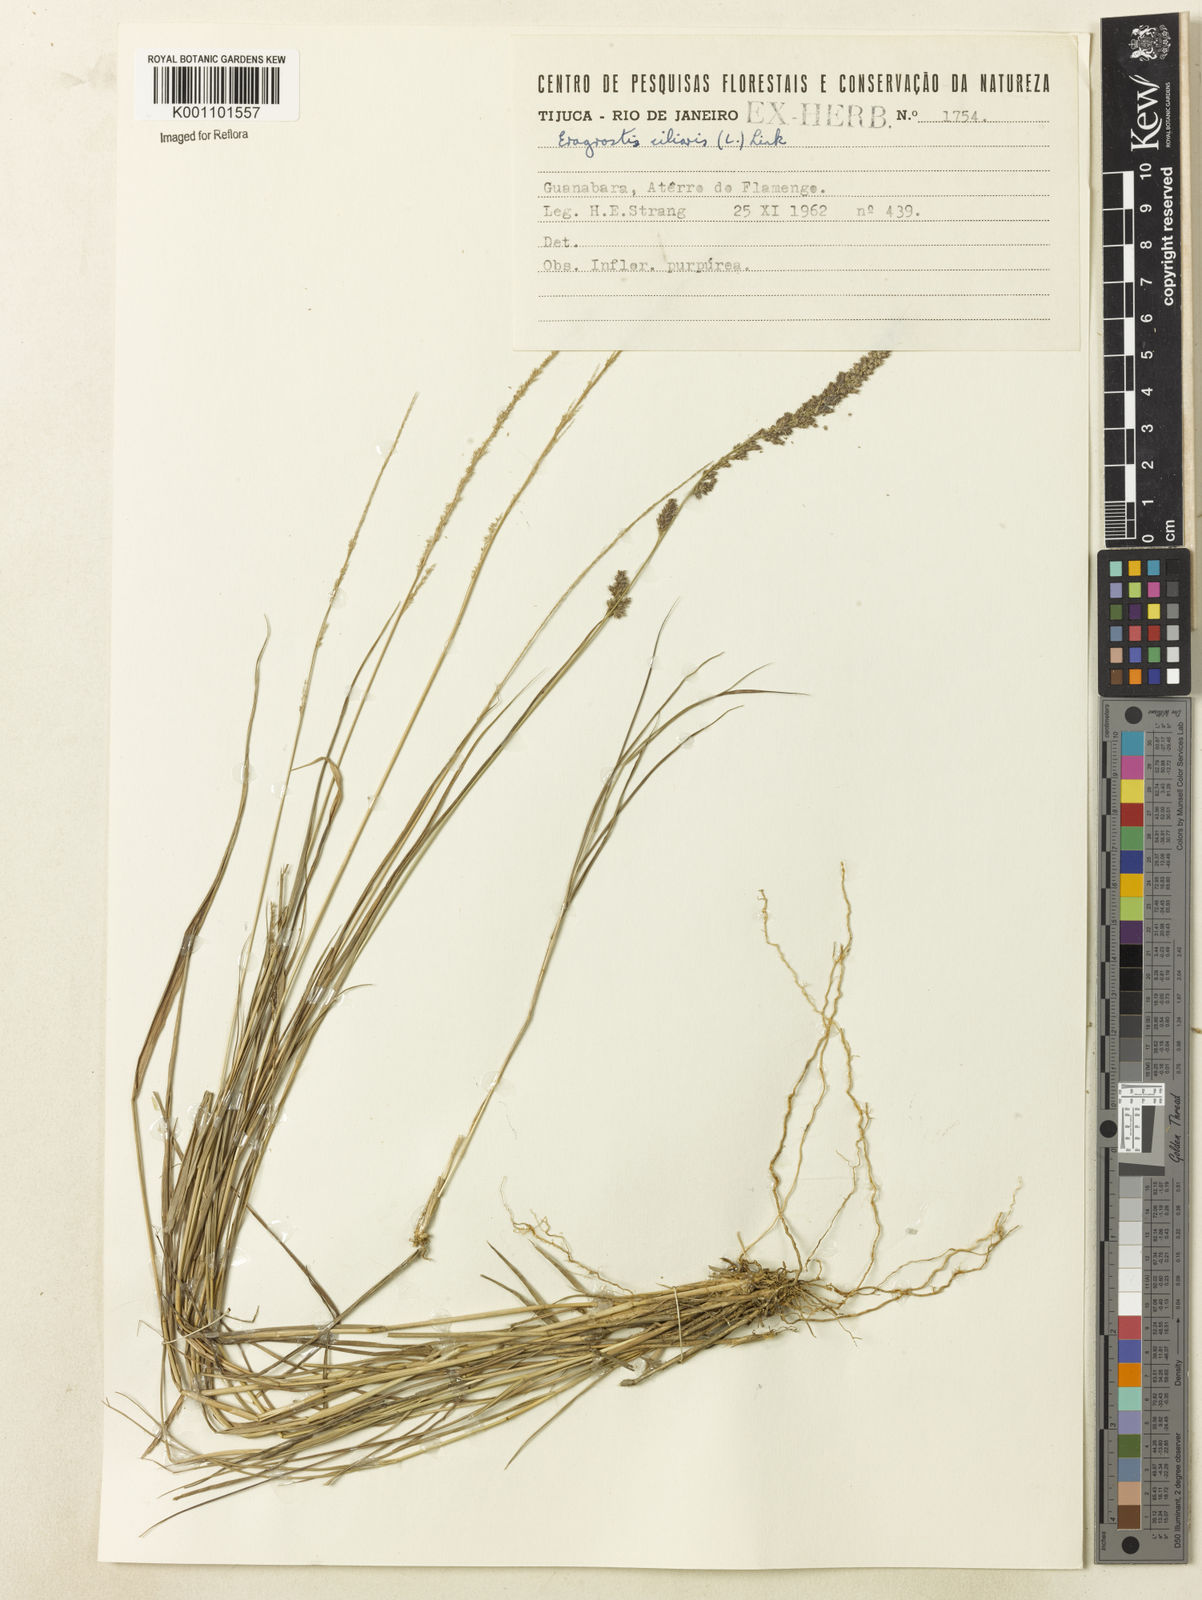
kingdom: Plantae
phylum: Tracheophyta
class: Liliopsida
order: Poales
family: Poaceae
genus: Eragrostis
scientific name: Eragrostis ciliaris
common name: Gophertail lovegrass
